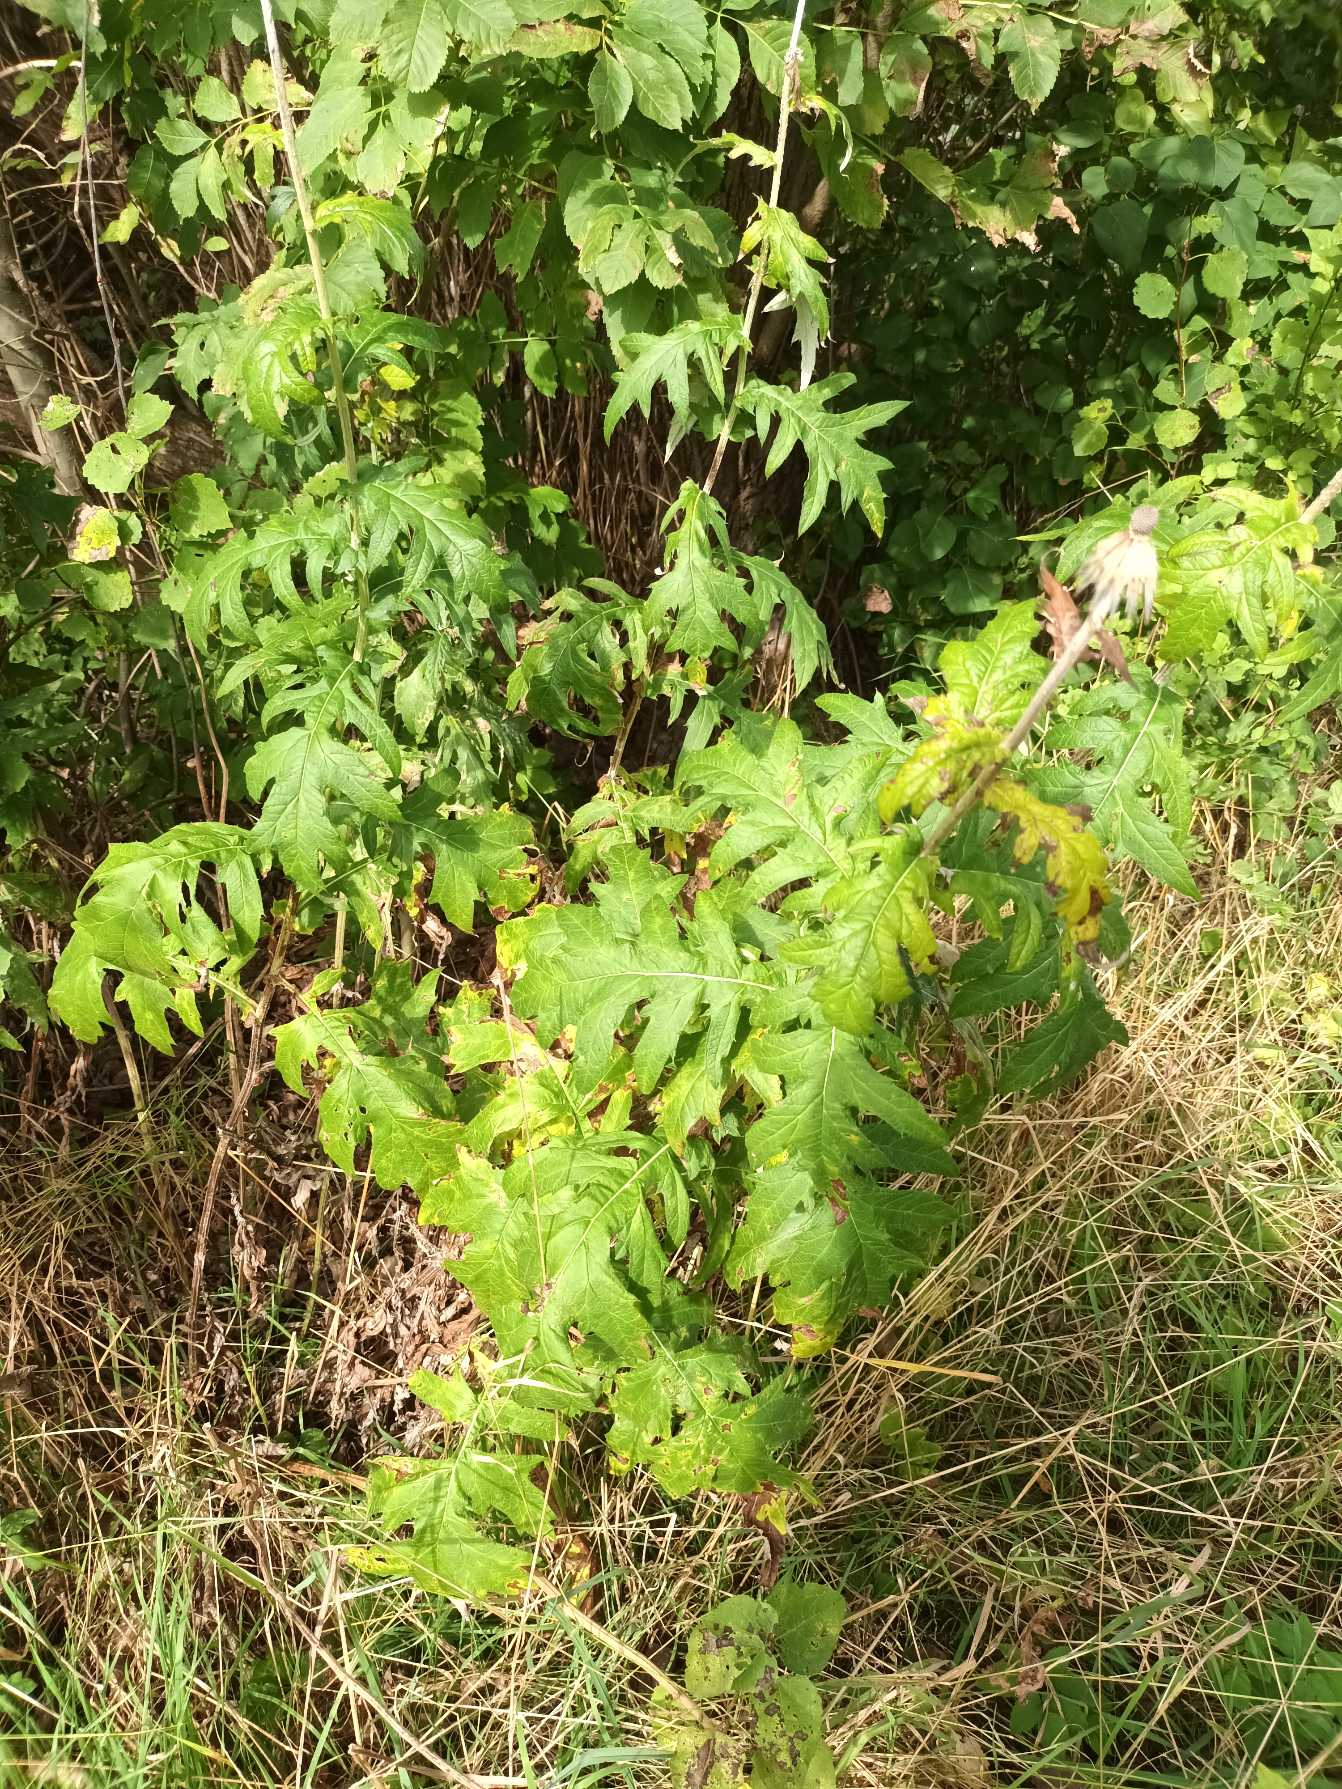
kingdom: Plantae
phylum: Tracheophyta
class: Magnoliopsida
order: Asterales
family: Asteraceae
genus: Echinops
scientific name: Echinops exaltatus
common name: Høj tidselkugle
